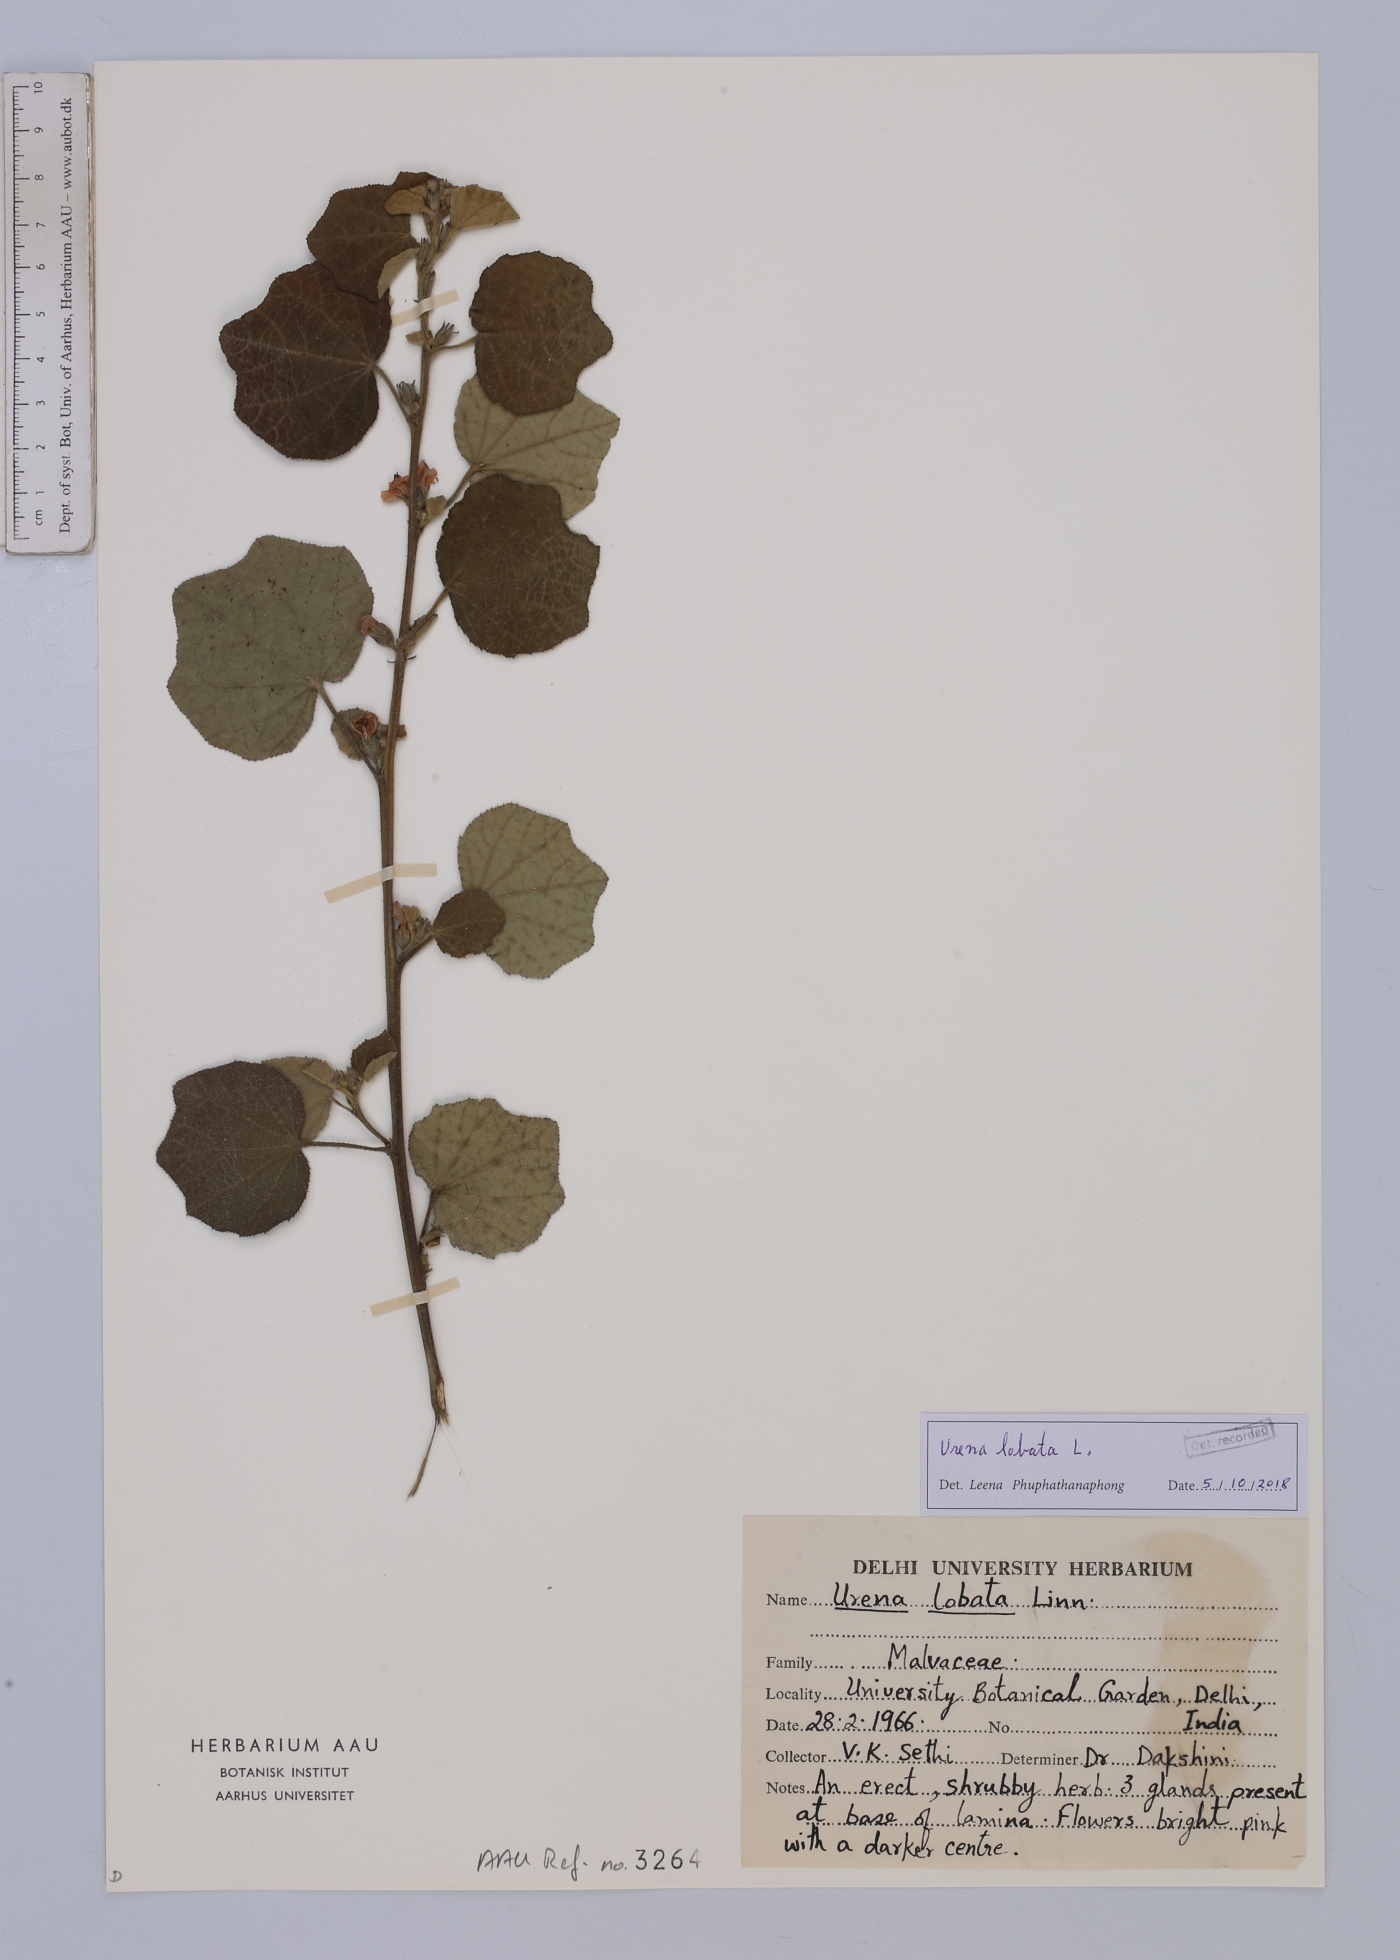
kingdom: Plantae
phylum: Tracheophyta
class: Magnoliopsida
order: Malvales
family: Malvaceae
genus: Urena
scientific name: Urena lobata
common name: Caesarweed
